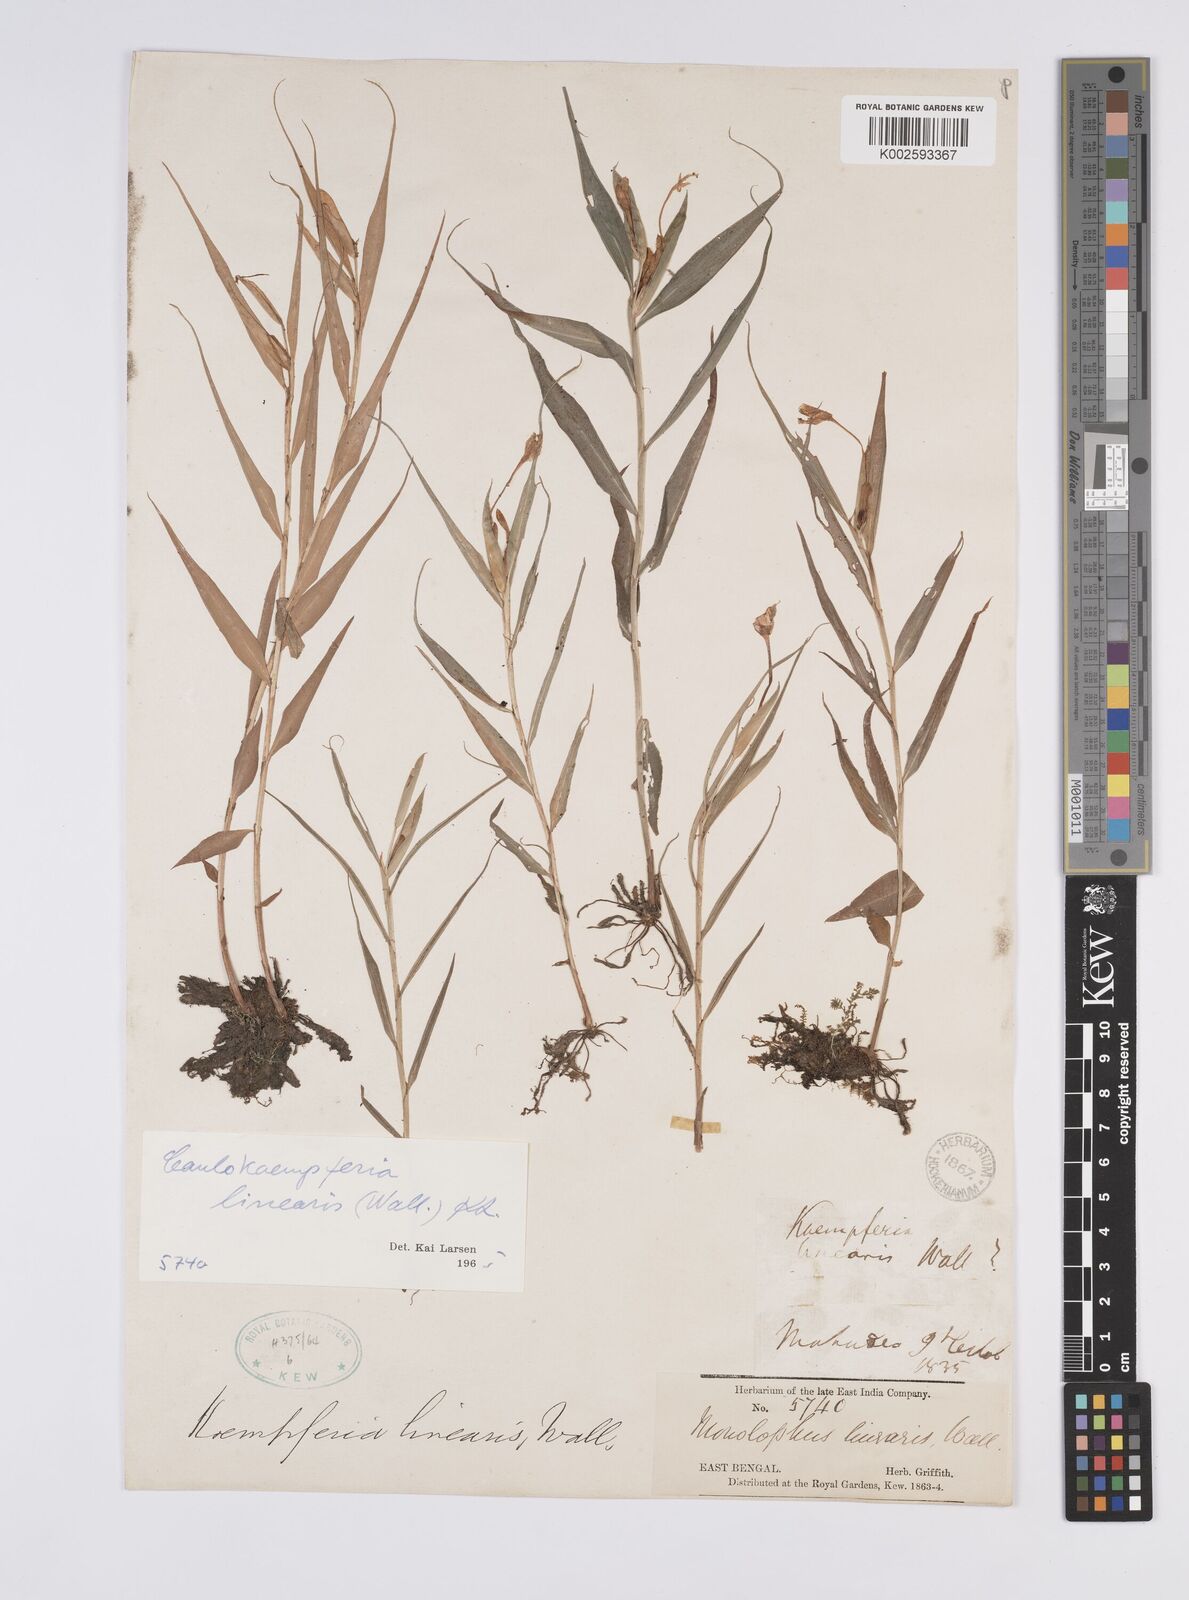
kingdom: Plantae
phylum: Tracheophyta
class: Liliopsida
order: Zingiberales
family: Zingiberaceae
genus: Caulokaempferia
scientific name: Caulokaempferia linearis
